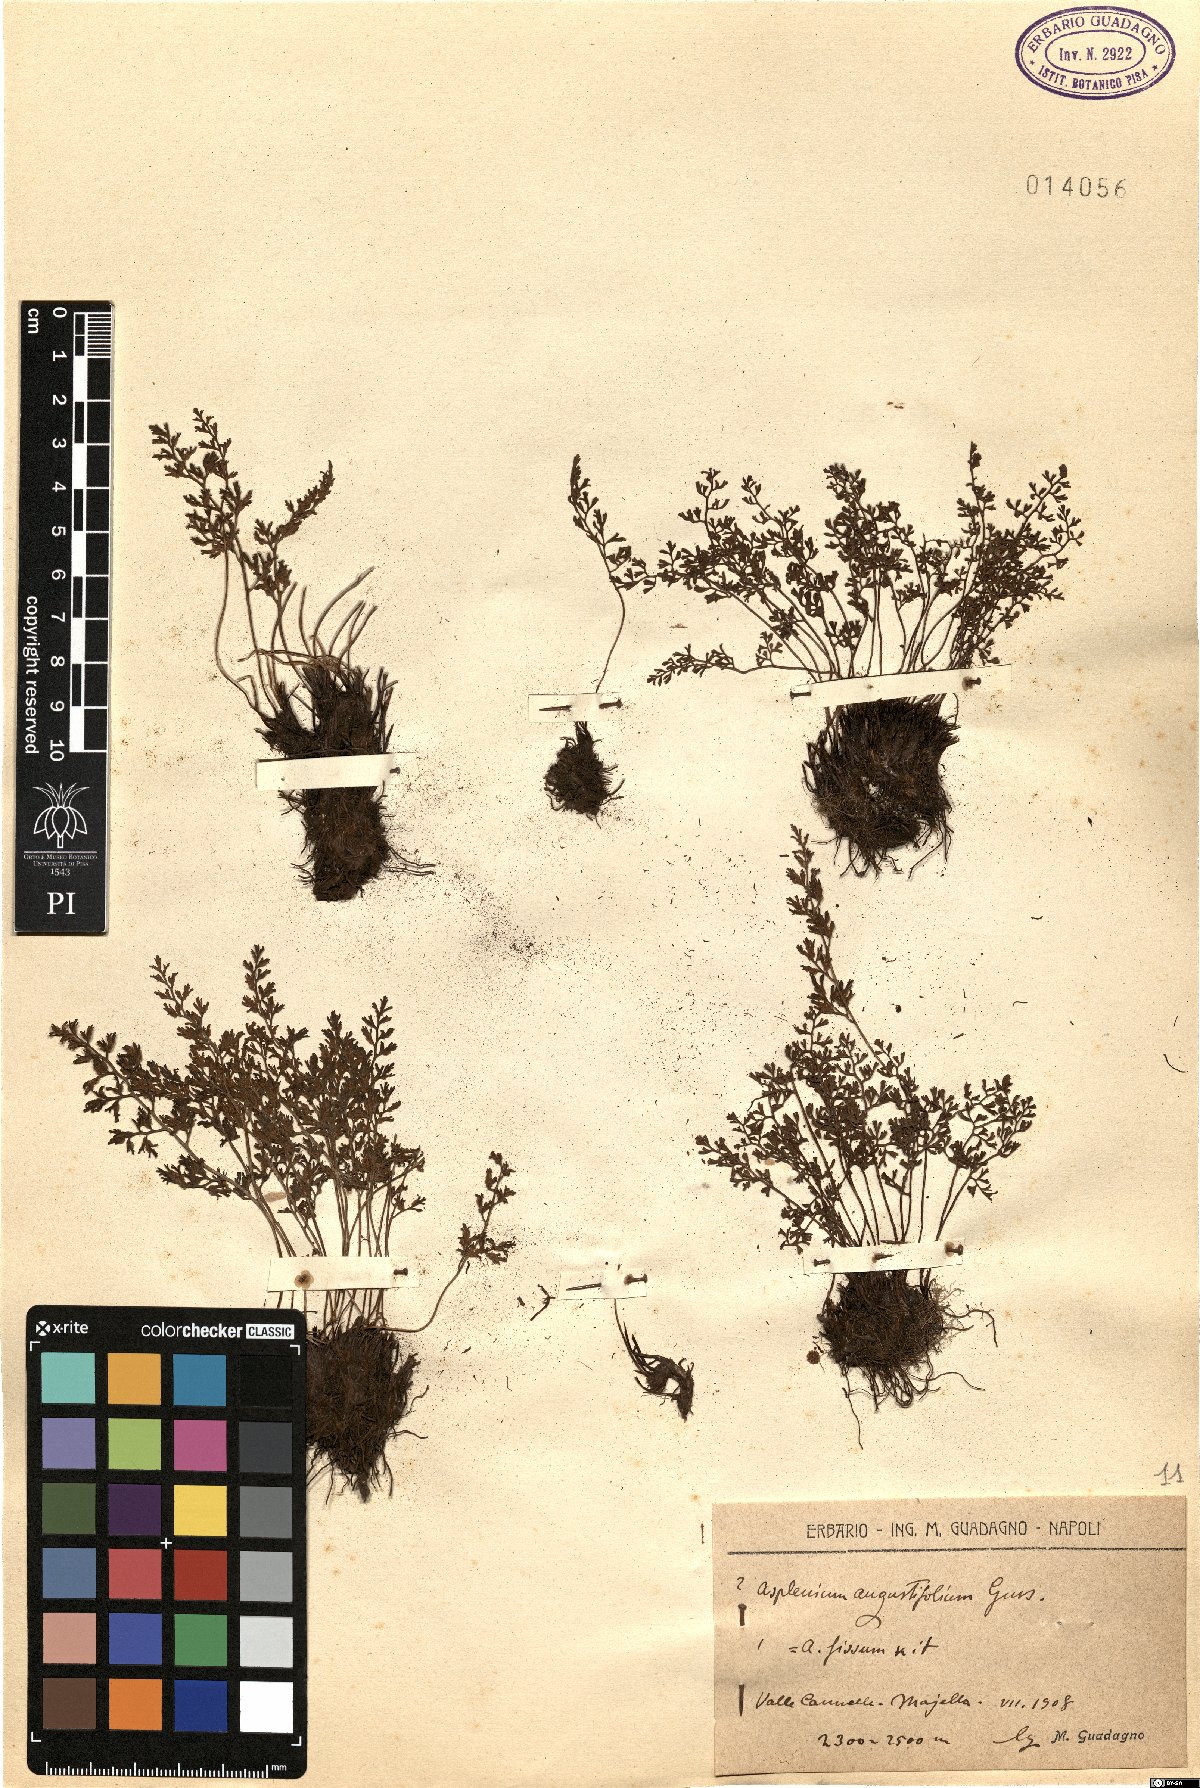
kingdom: Plantae
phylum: Tracheophyta
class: Polypodiopsida
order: Polypodiales
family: Aspleniaceae
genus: Asplenium
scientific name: Asplenium fissum
